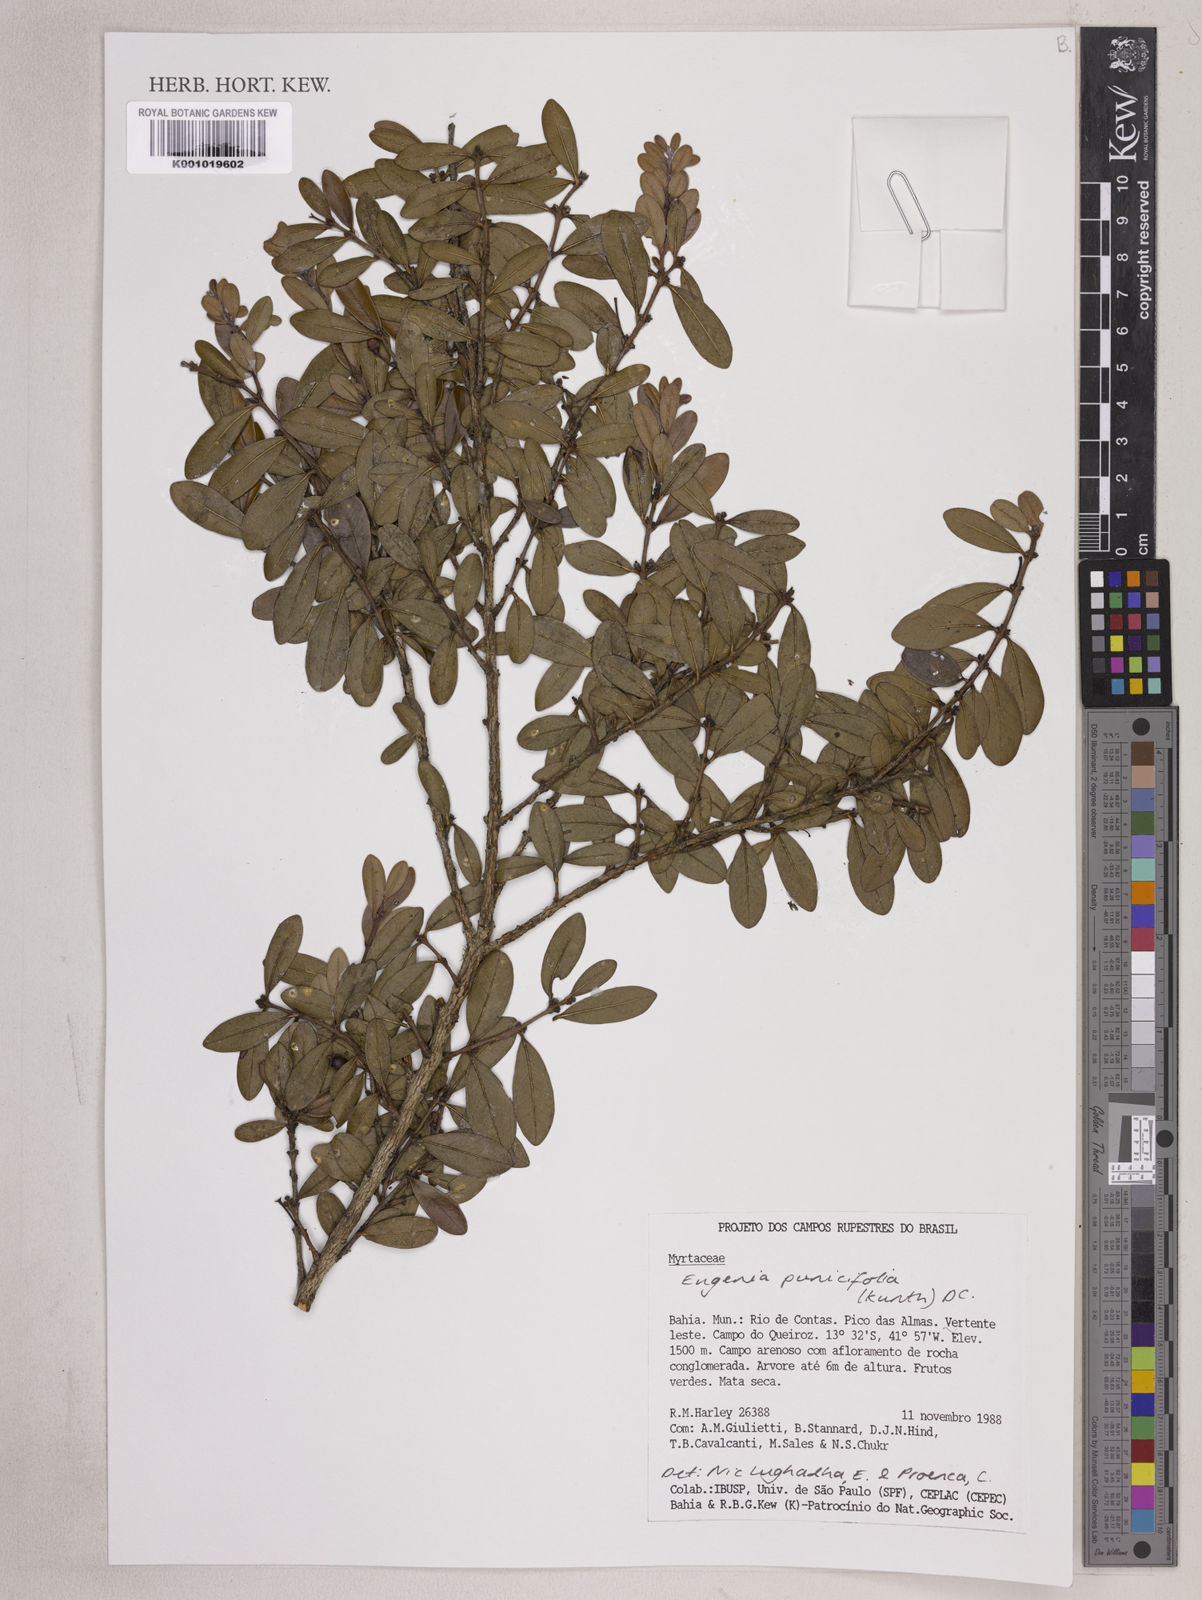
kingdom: Plantae
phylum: Tracheophyta
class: Magnoliopsida
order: Myrtales
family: Myrtaceae
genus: Eugenia
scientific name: Eugenia punicifolia
